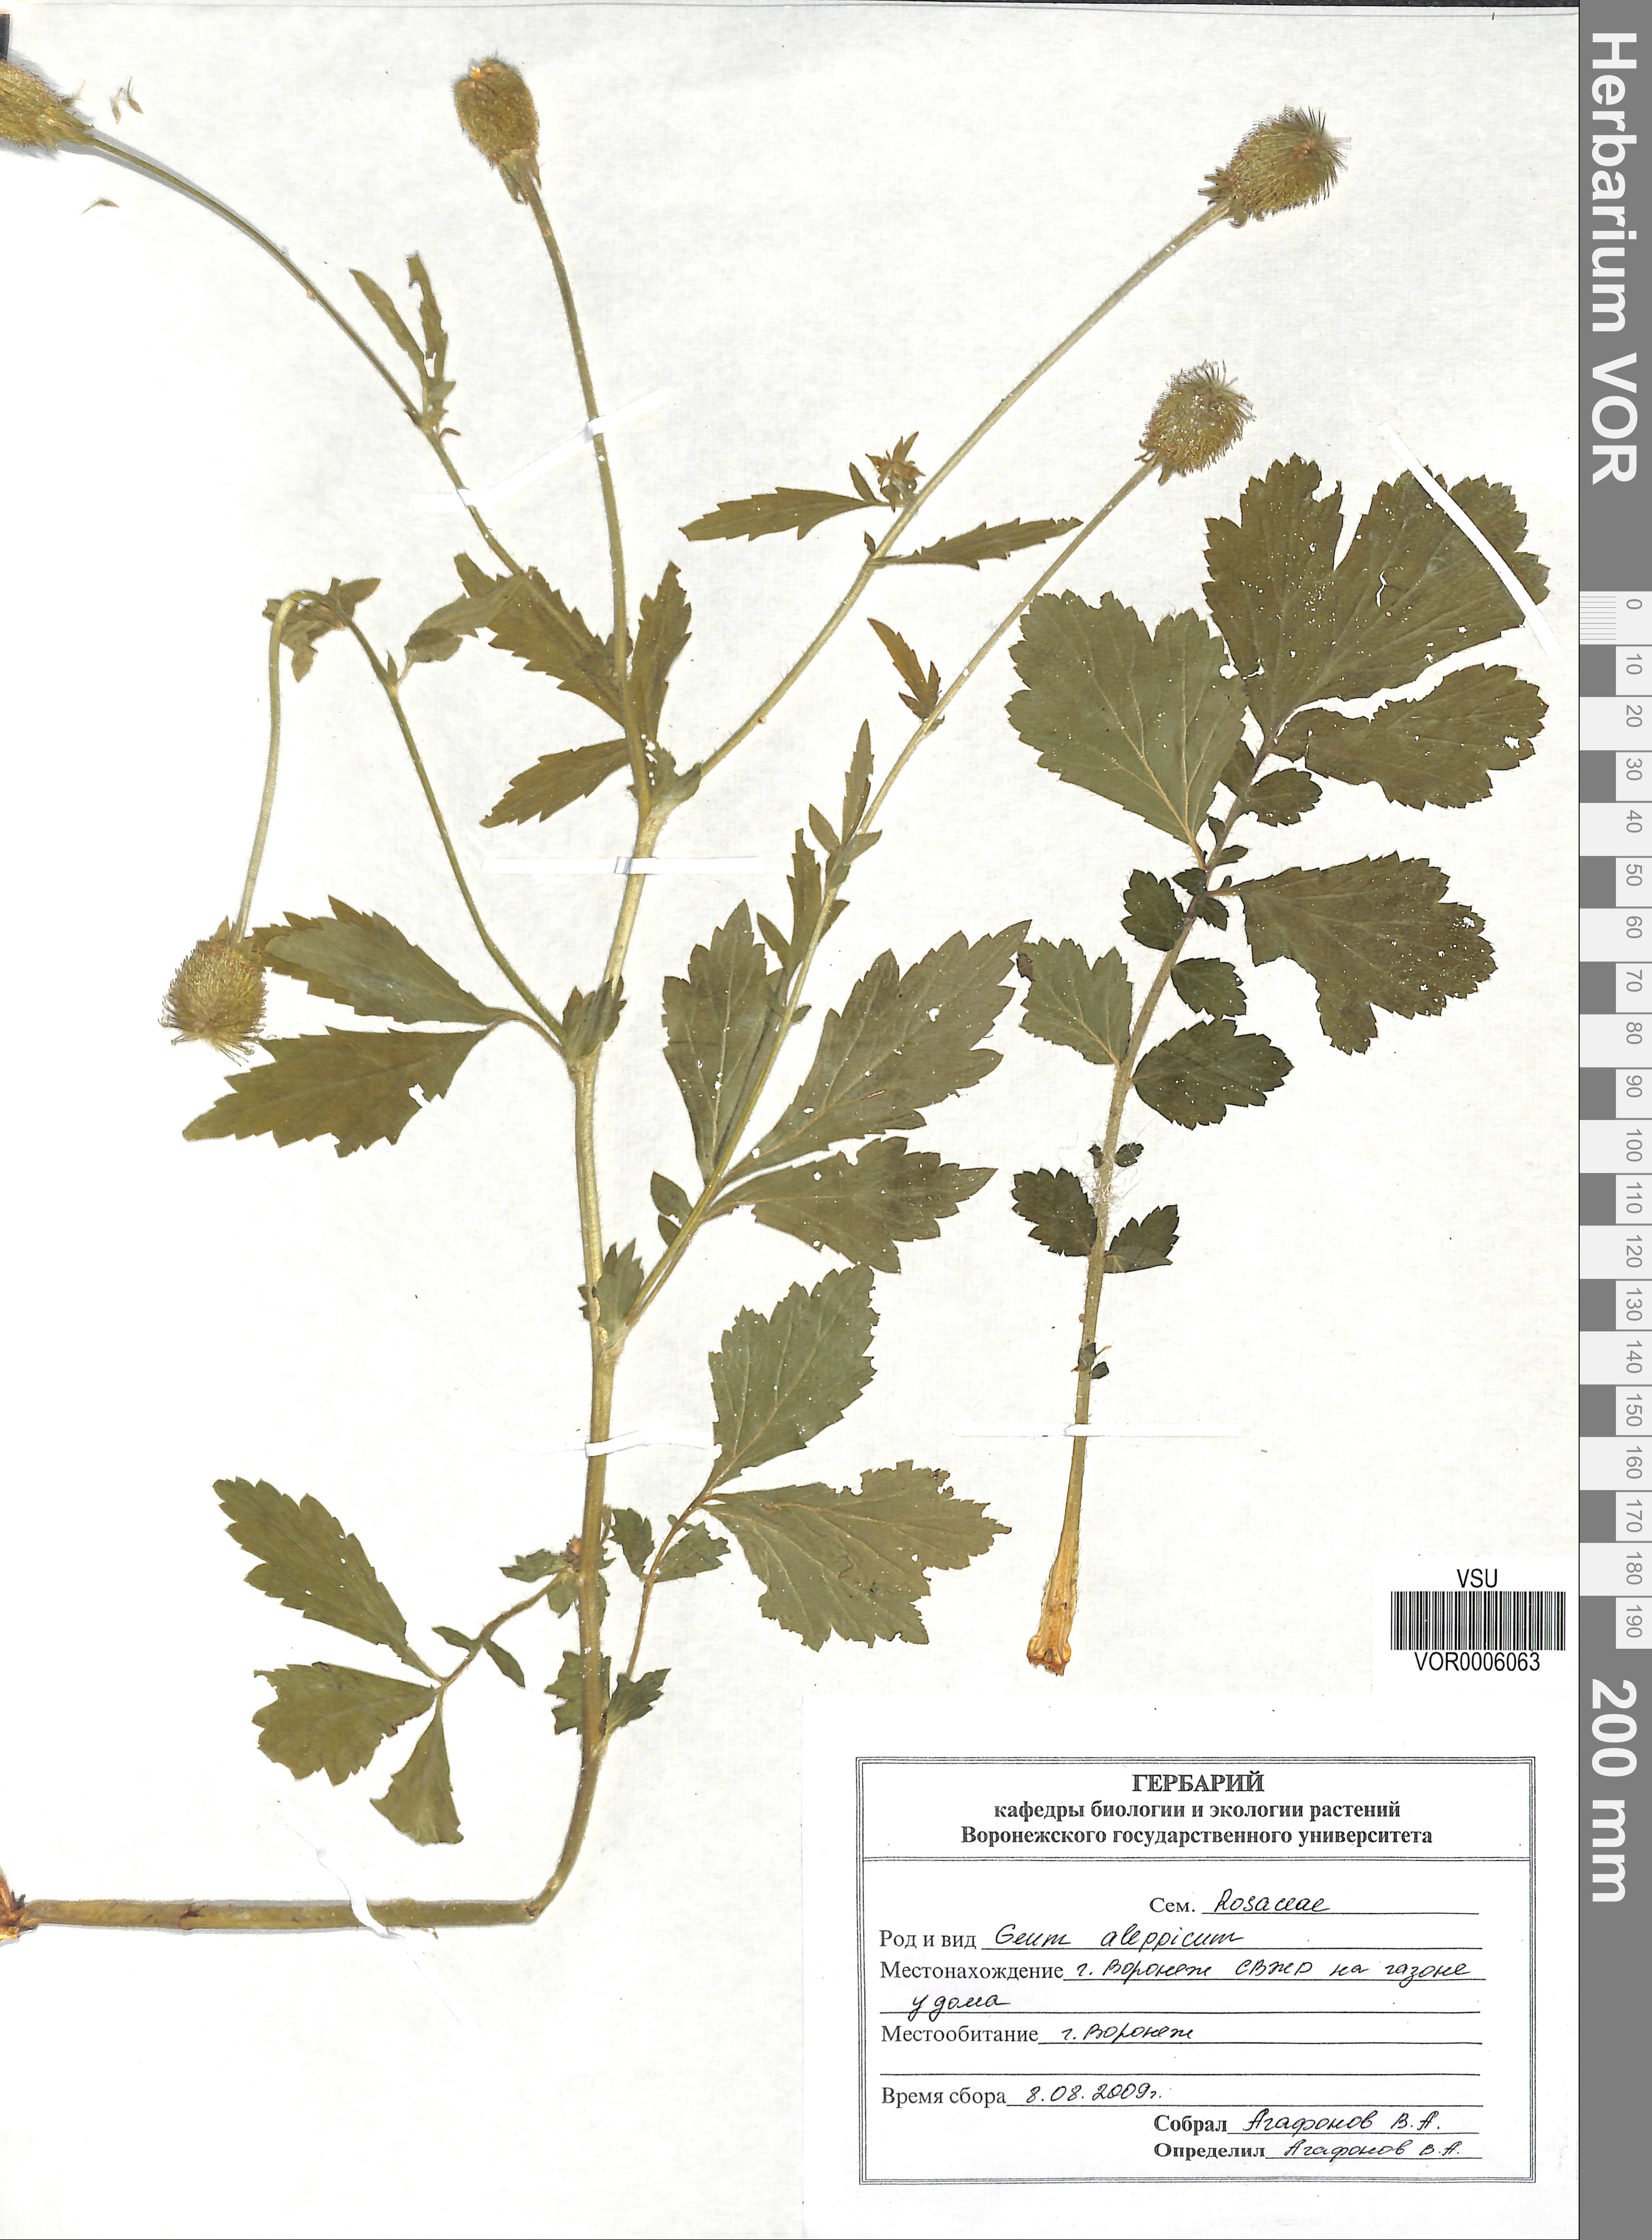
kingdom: Plantae
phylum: Tracheophyta
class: Magnoliopsida
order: Rosales
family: Rosaceae
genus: Geum
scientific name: Geum aleppicum
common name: Yellow avens
